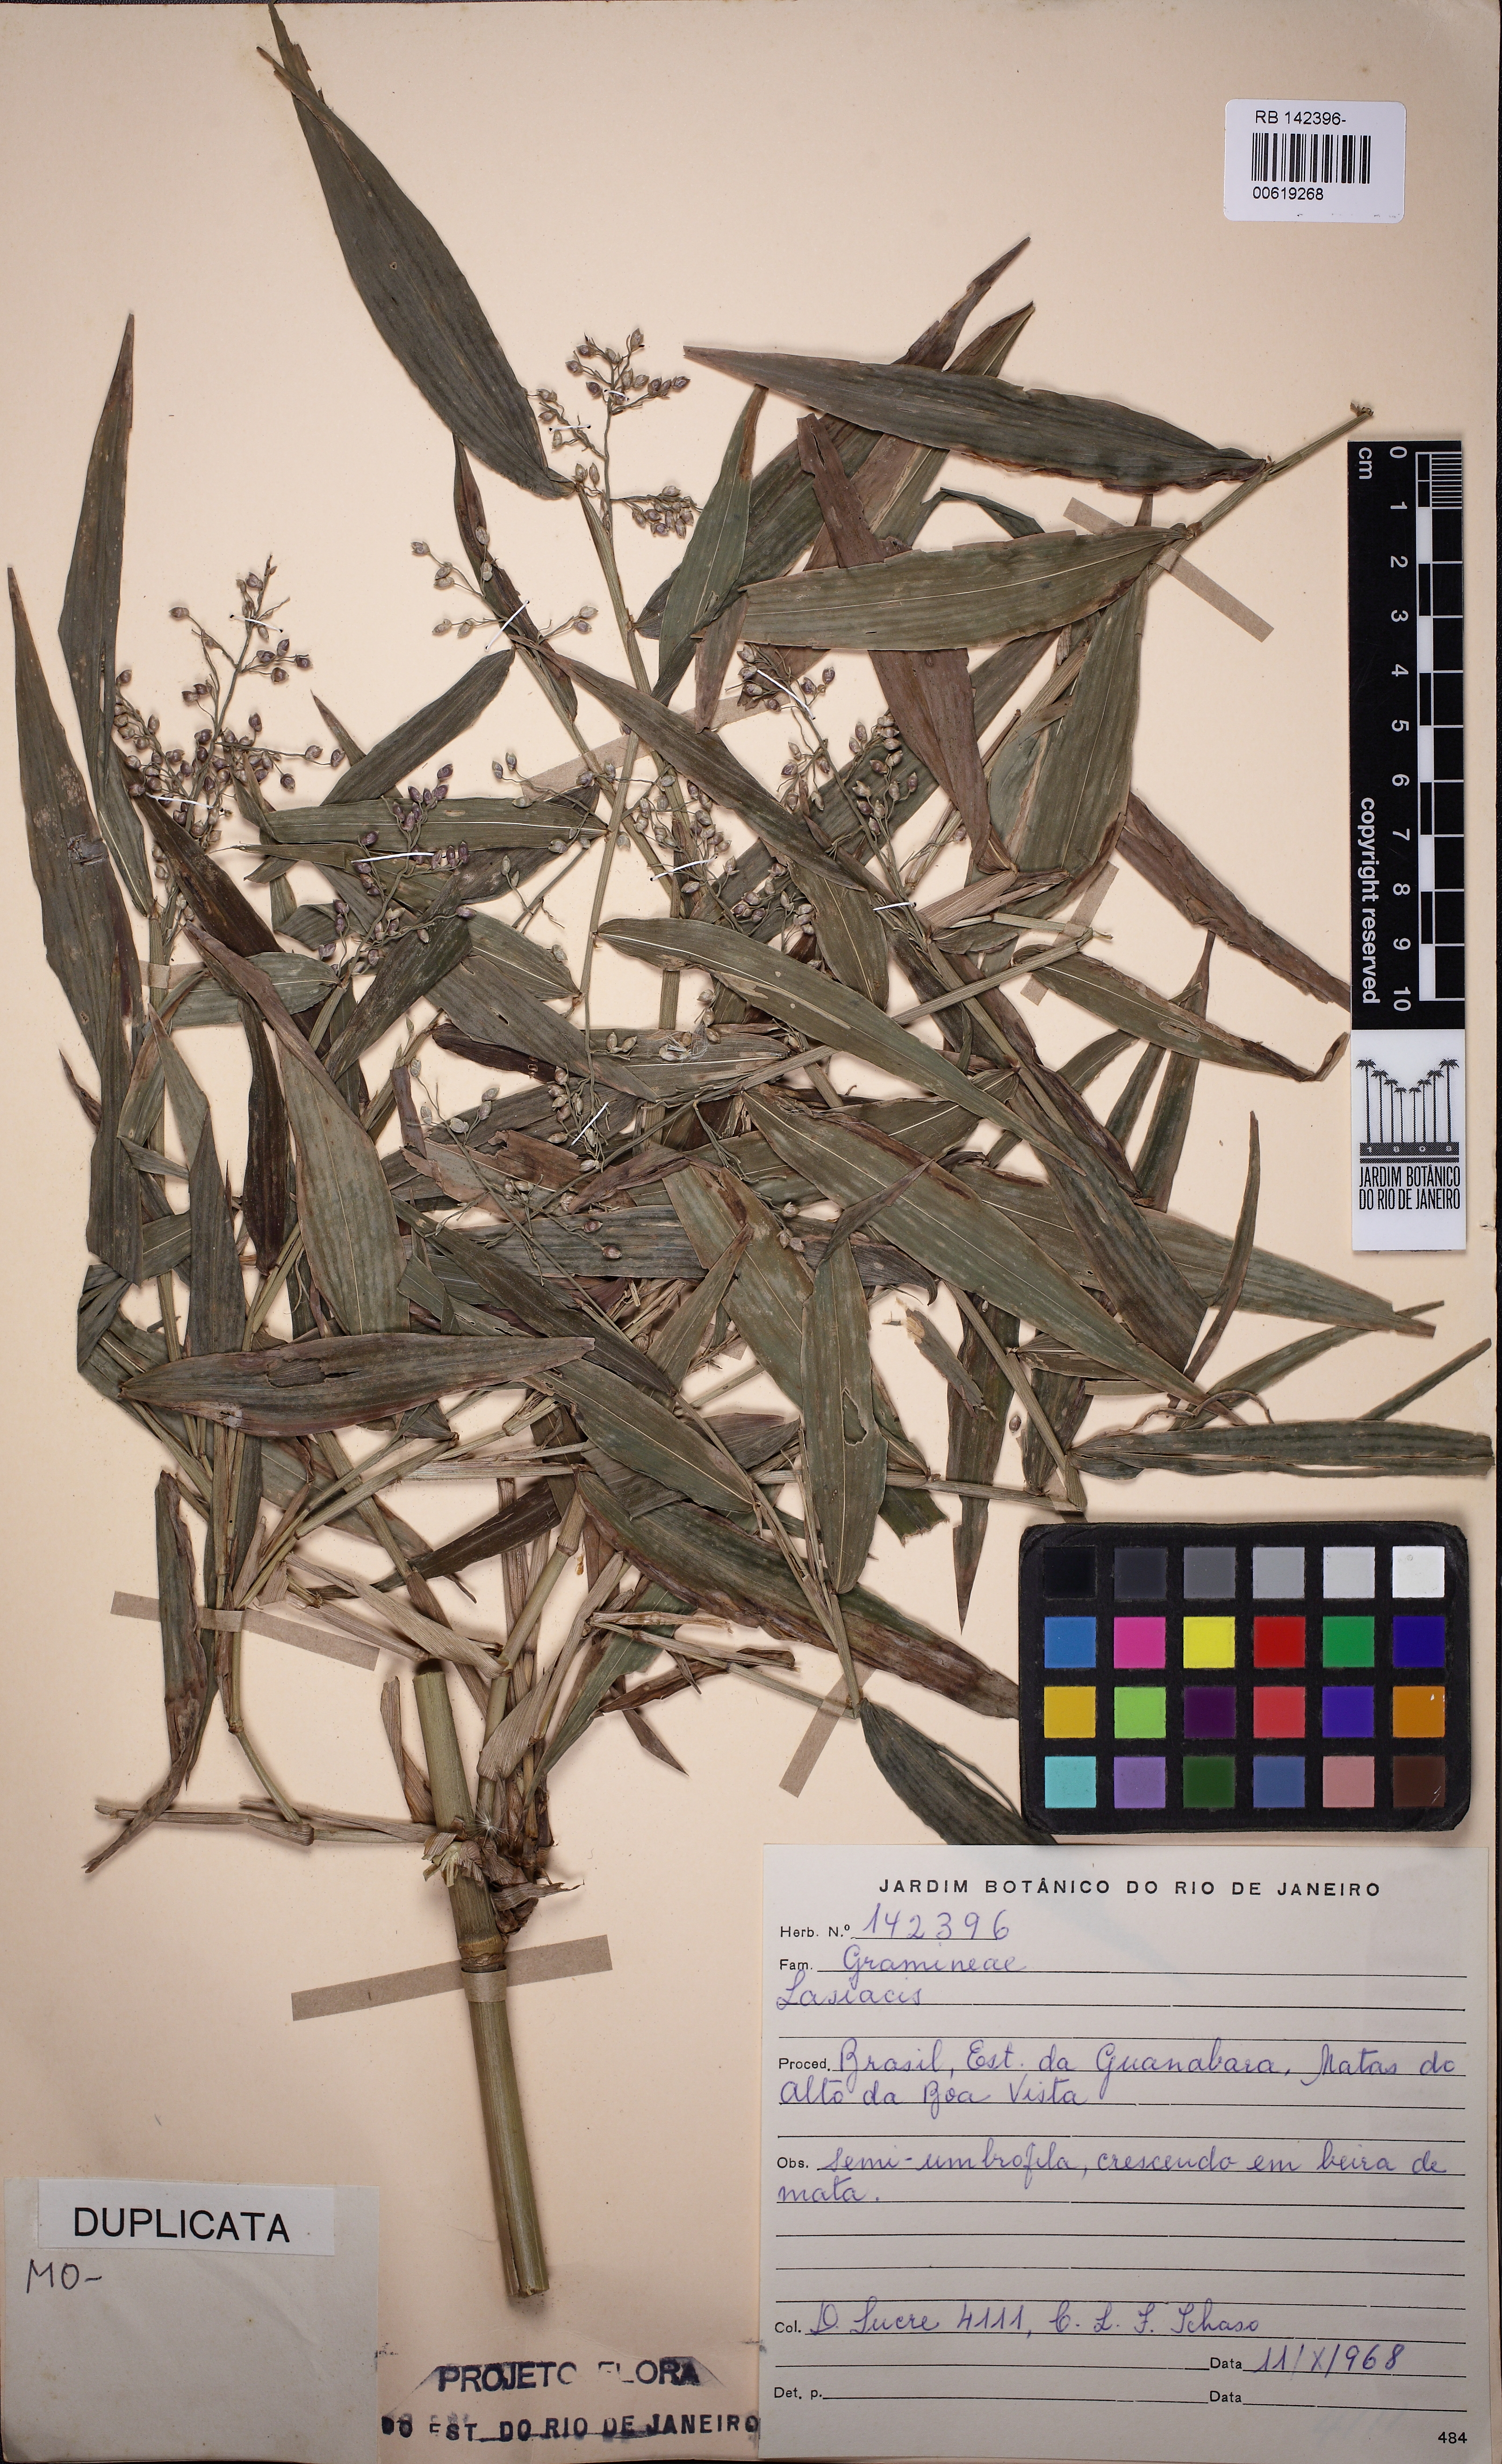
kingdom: Plantae
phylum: Tracheophyta
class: Liliopsida
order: Poales
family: Poaceae
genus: Lasiacis
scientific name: Lasiacis
